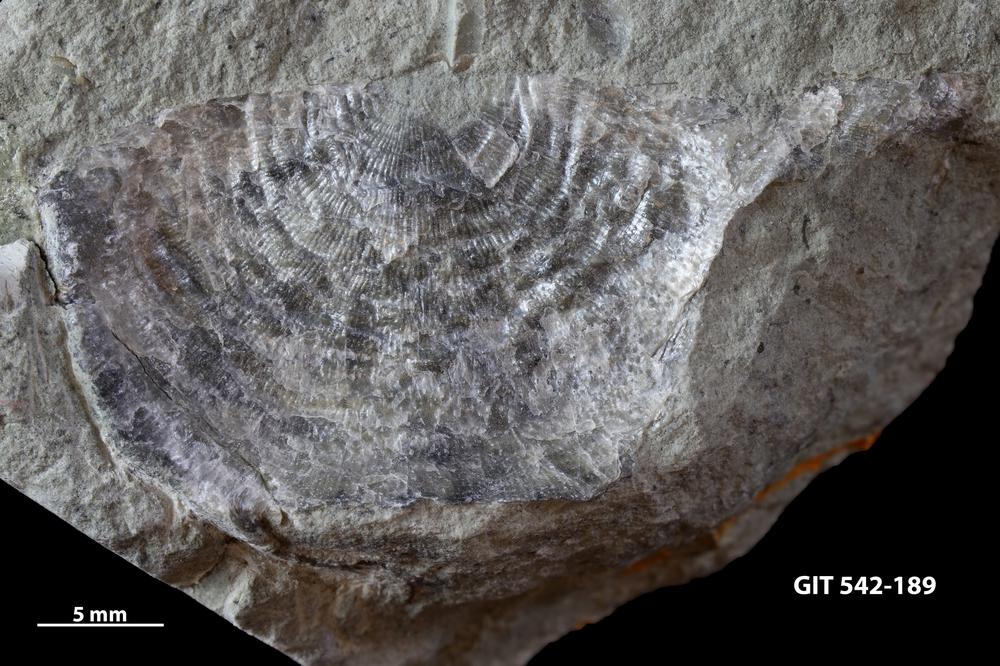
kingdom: Animalia
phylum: Brachiopoda
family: Strophomenidae
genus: Leptaena
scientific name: Leptaena
